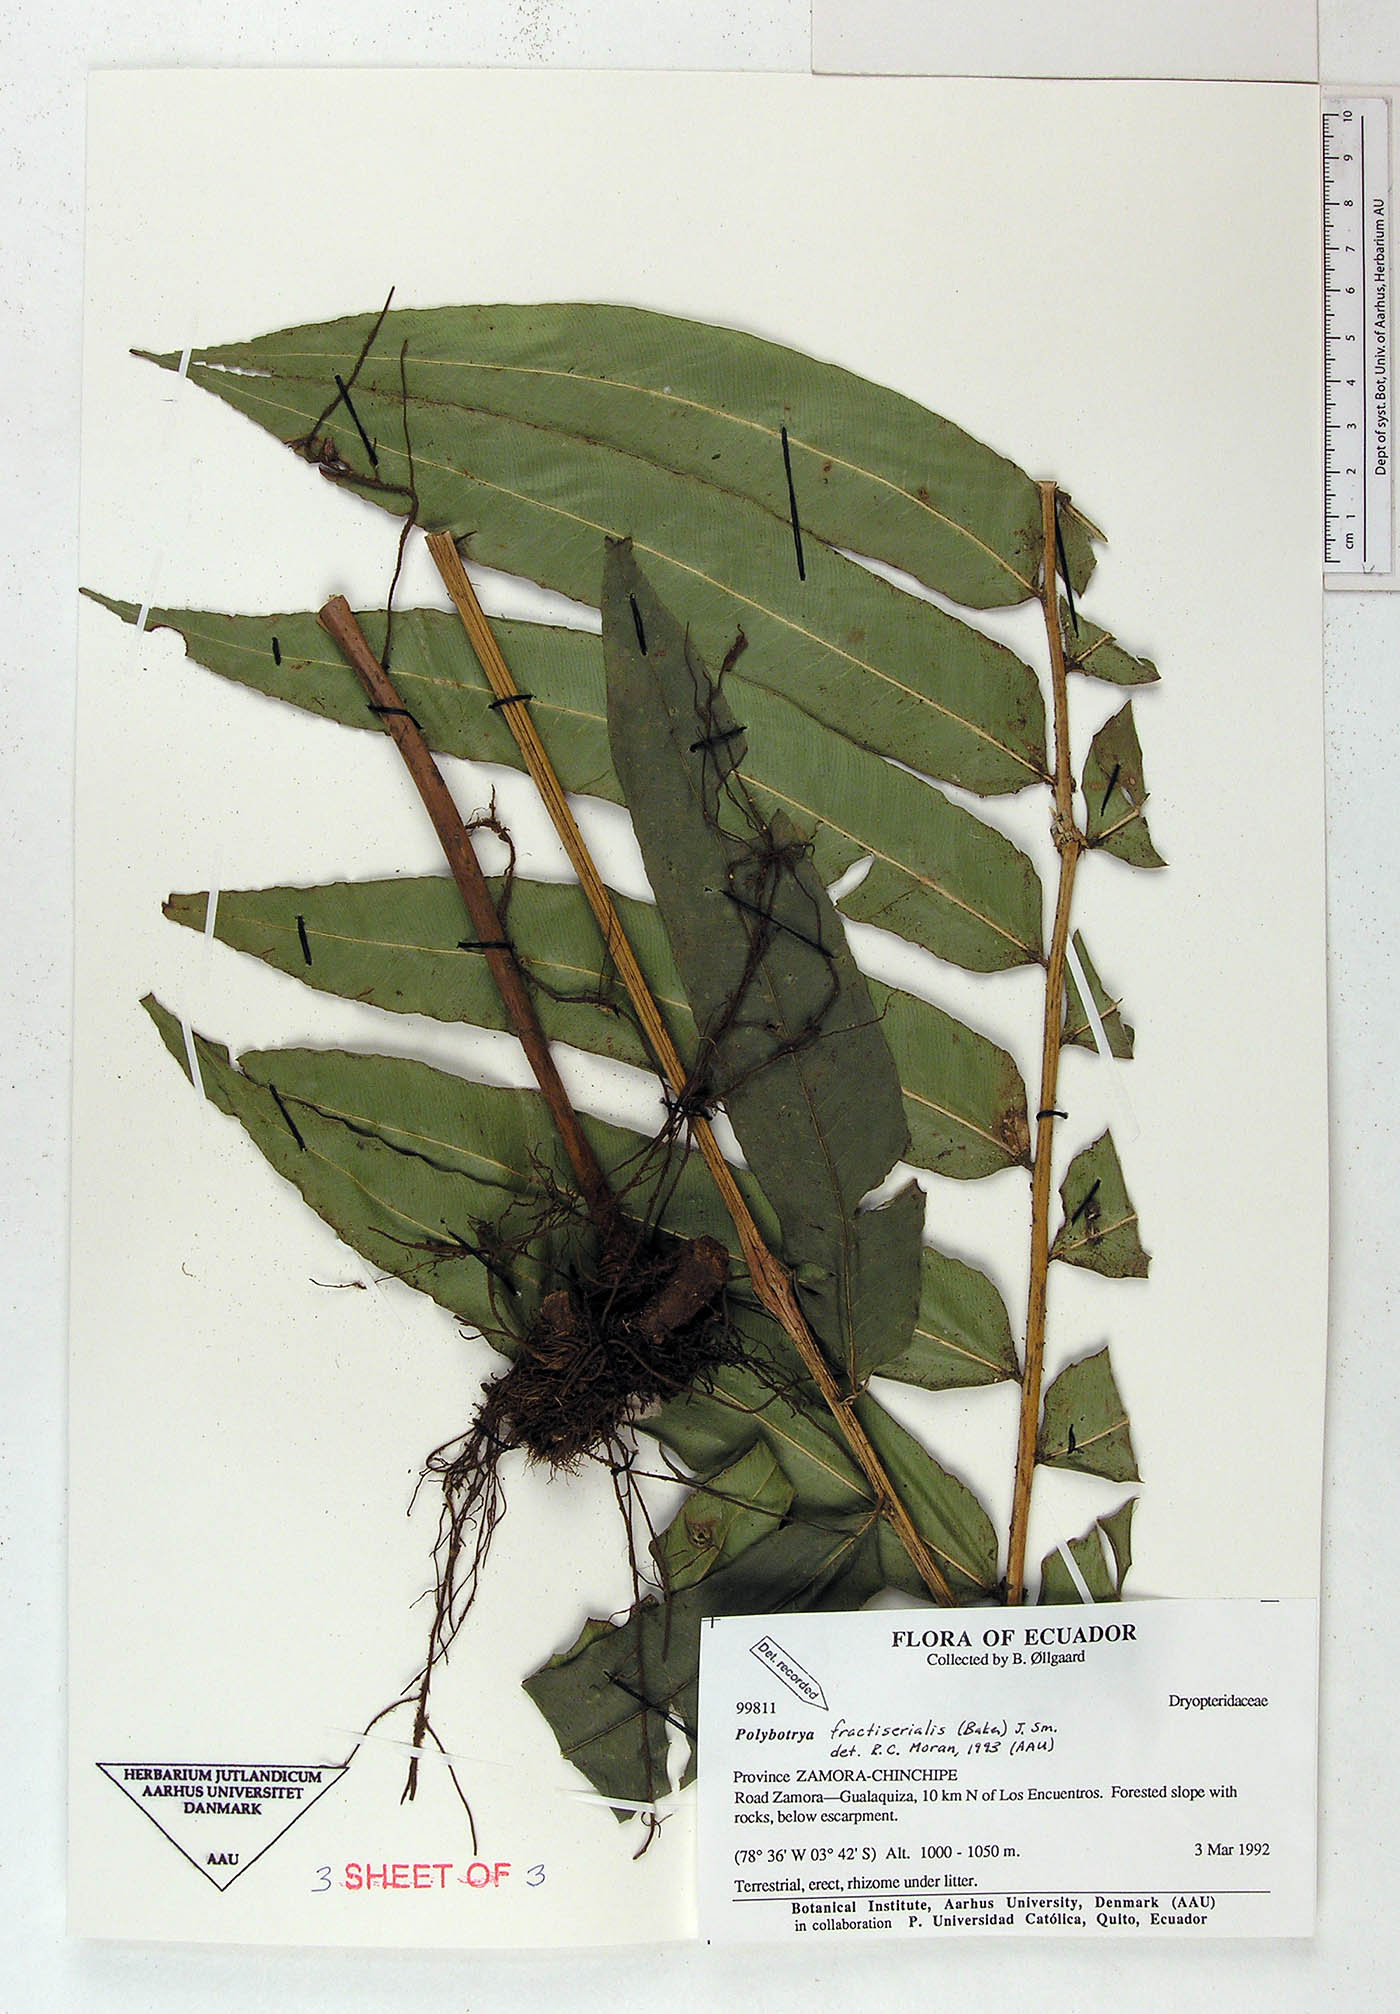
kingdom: Plantae
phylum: Tracheophyta
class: Polypodiopsida
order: Polypodiales
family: Dryopteridaceae
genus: Polybotrya
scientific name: Polybotrya fractiserialis
